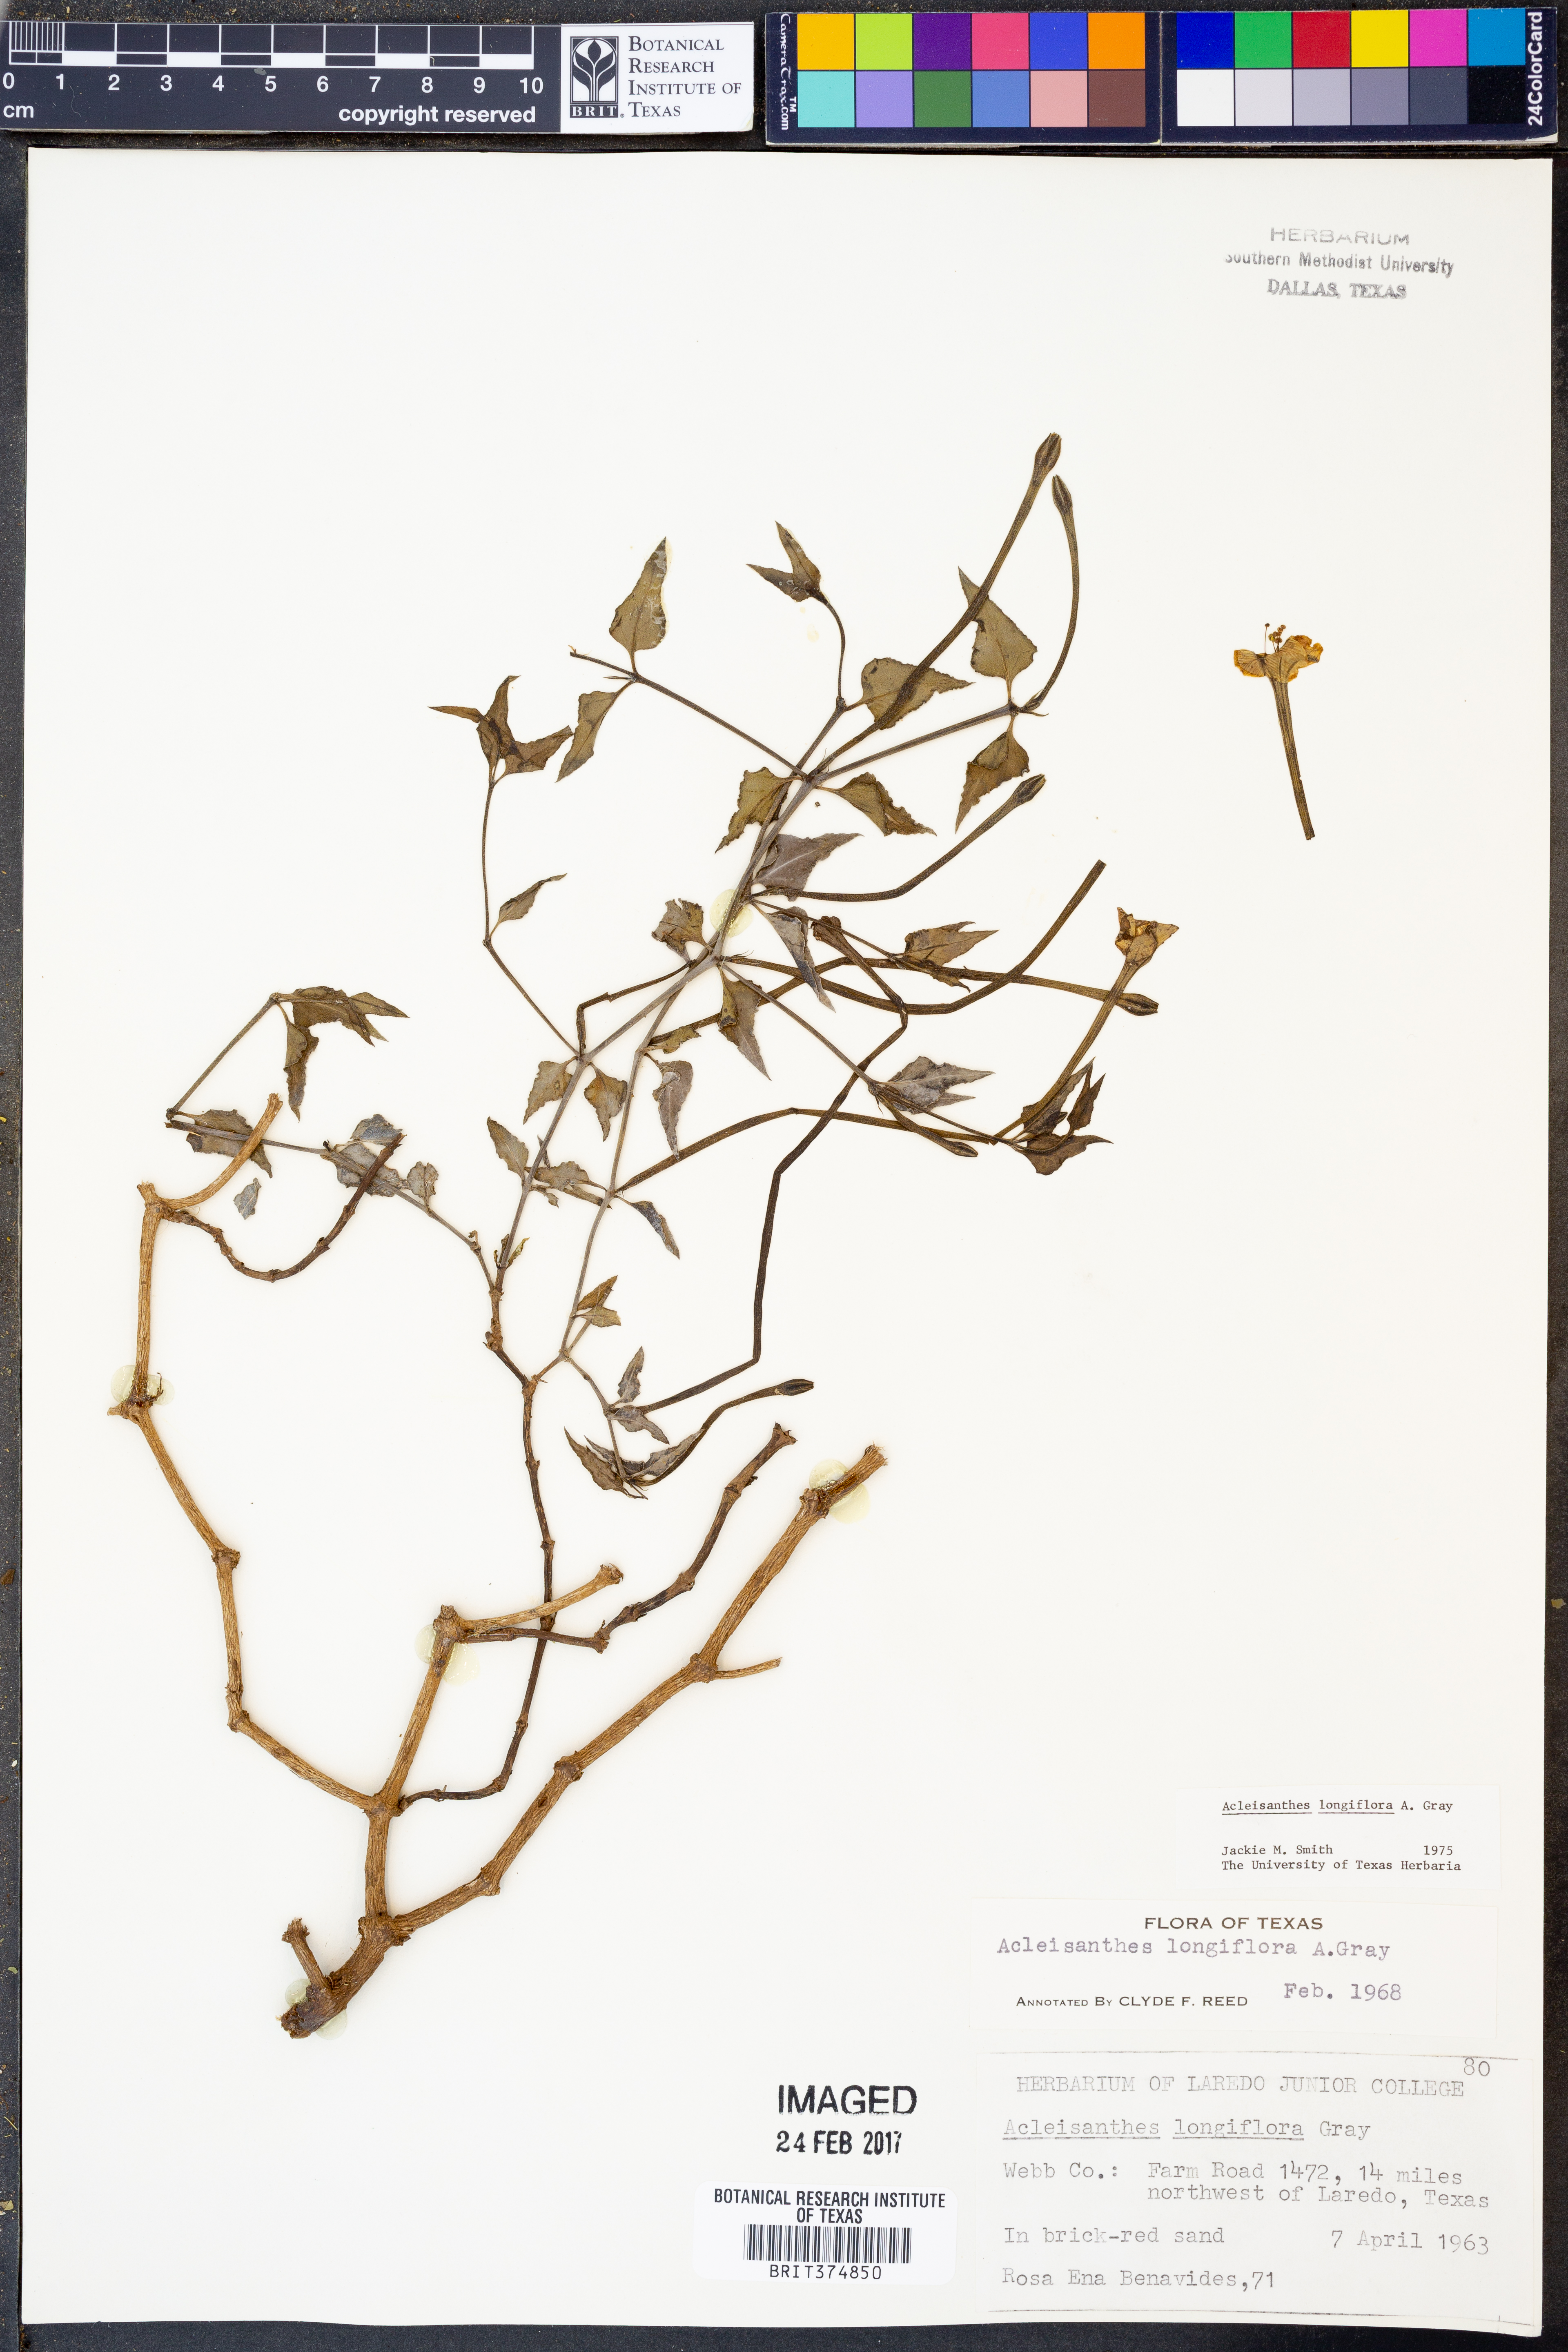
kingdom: Plantae
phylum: Tracheophyta
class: Magnoliopsida
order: Caryophyllales
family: Nyctaginaceae
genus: Acleisanthes
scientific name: Acleisanthes longiflora
